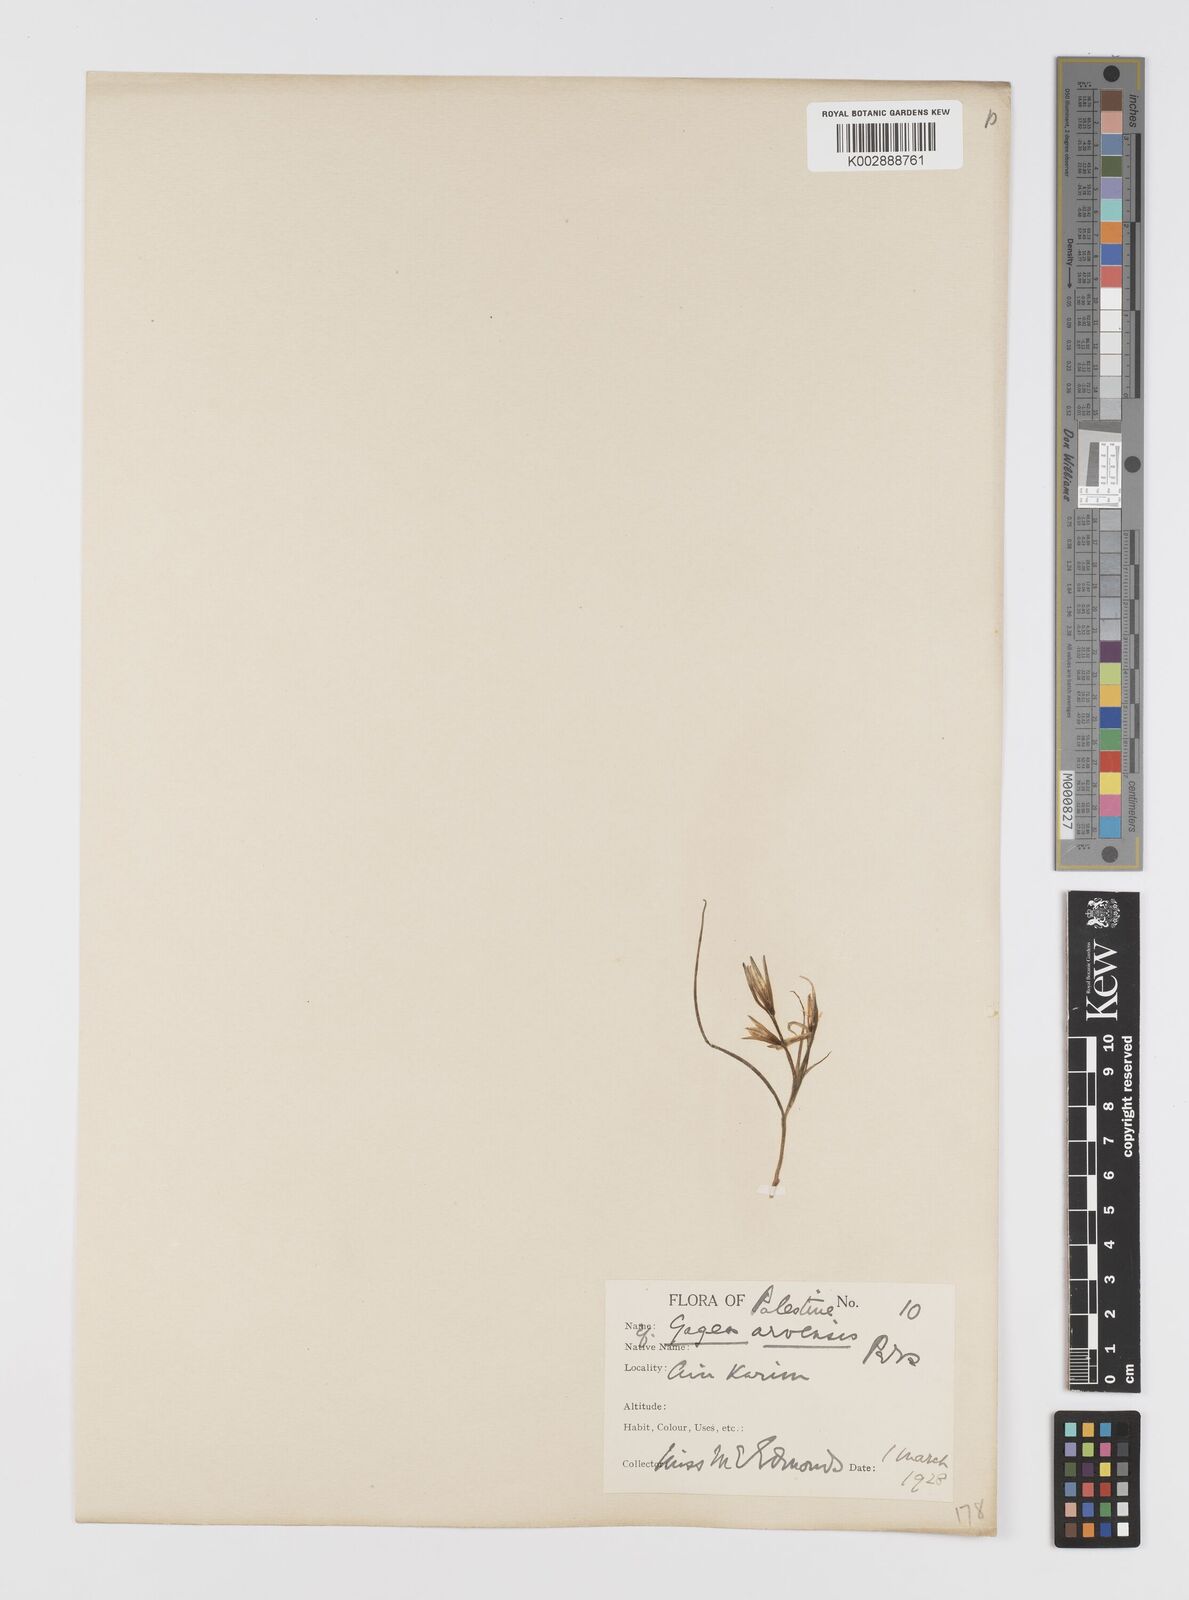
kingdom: Plantae
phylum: Tracheophyta
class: Liliopsida
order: Liliales
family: Liliaceae
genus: Gagea
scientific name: Gagea
